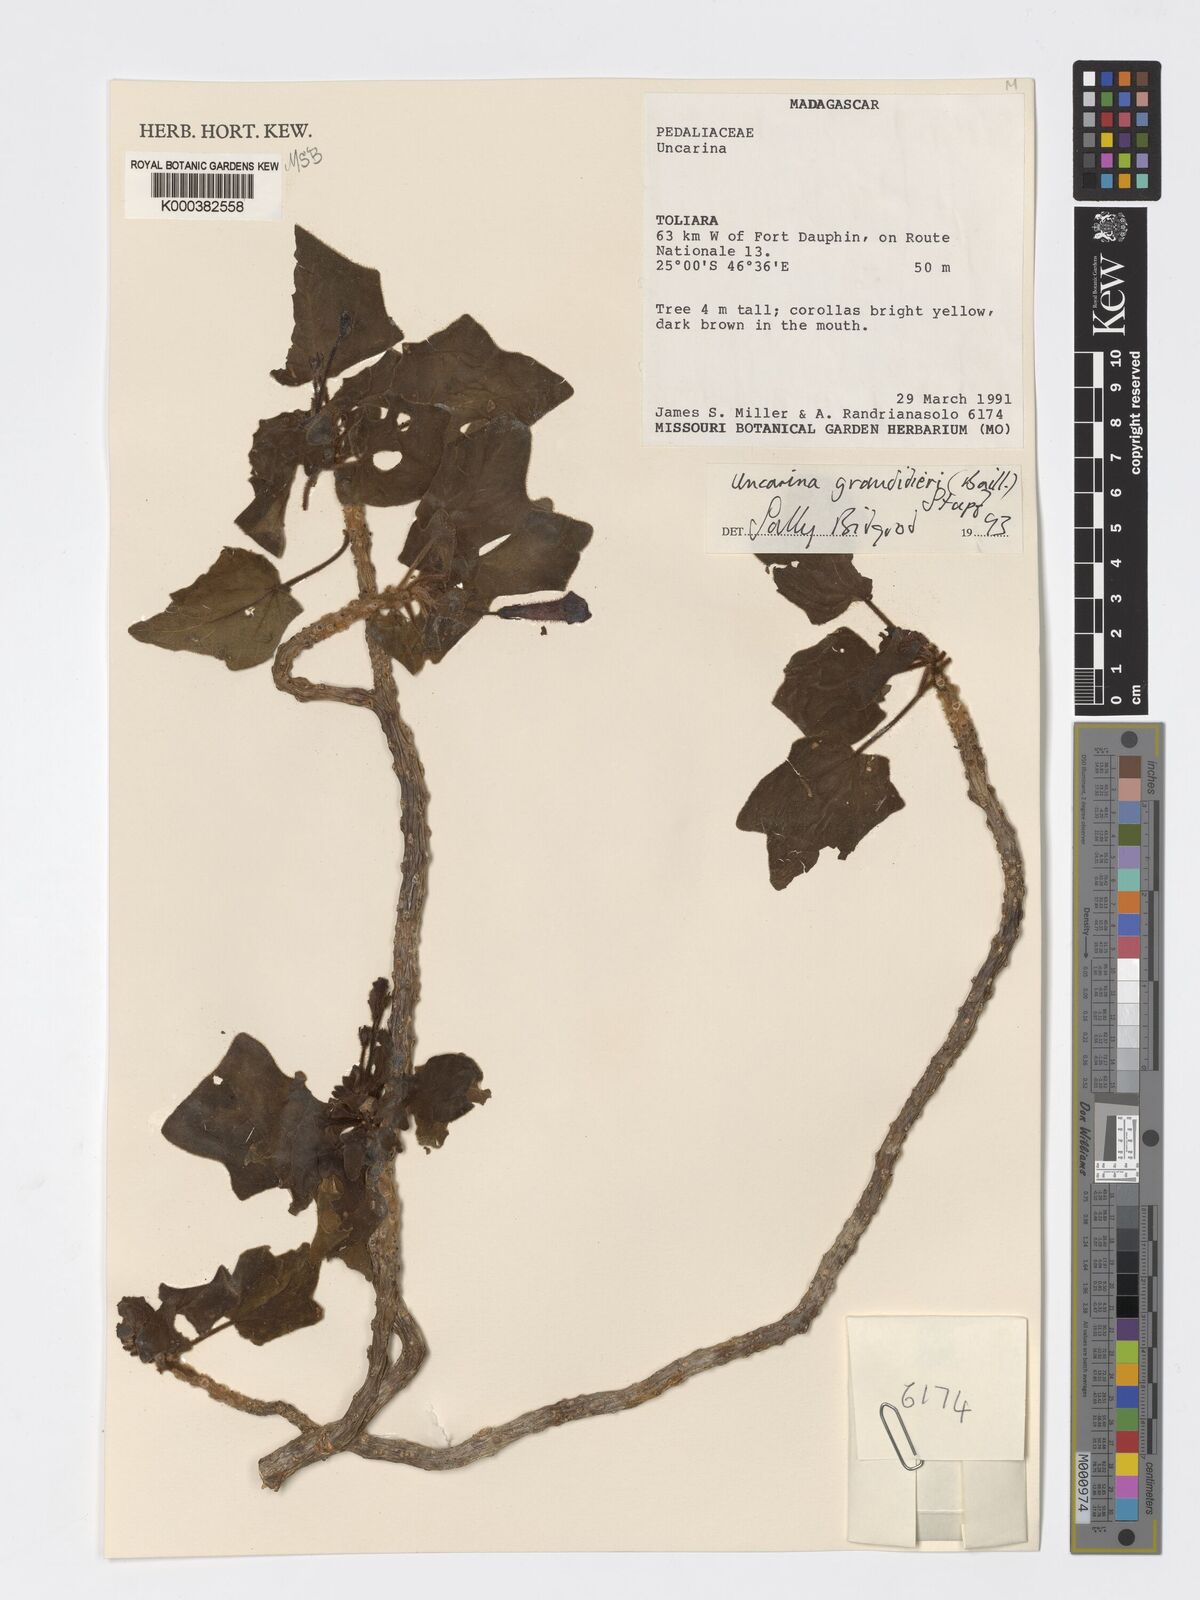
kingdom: Plantae
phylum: Tracheophyta
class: Magnoliopsida
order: Lamiales
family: Pedaliaceae
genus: Uncarina
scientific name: Uncarina
